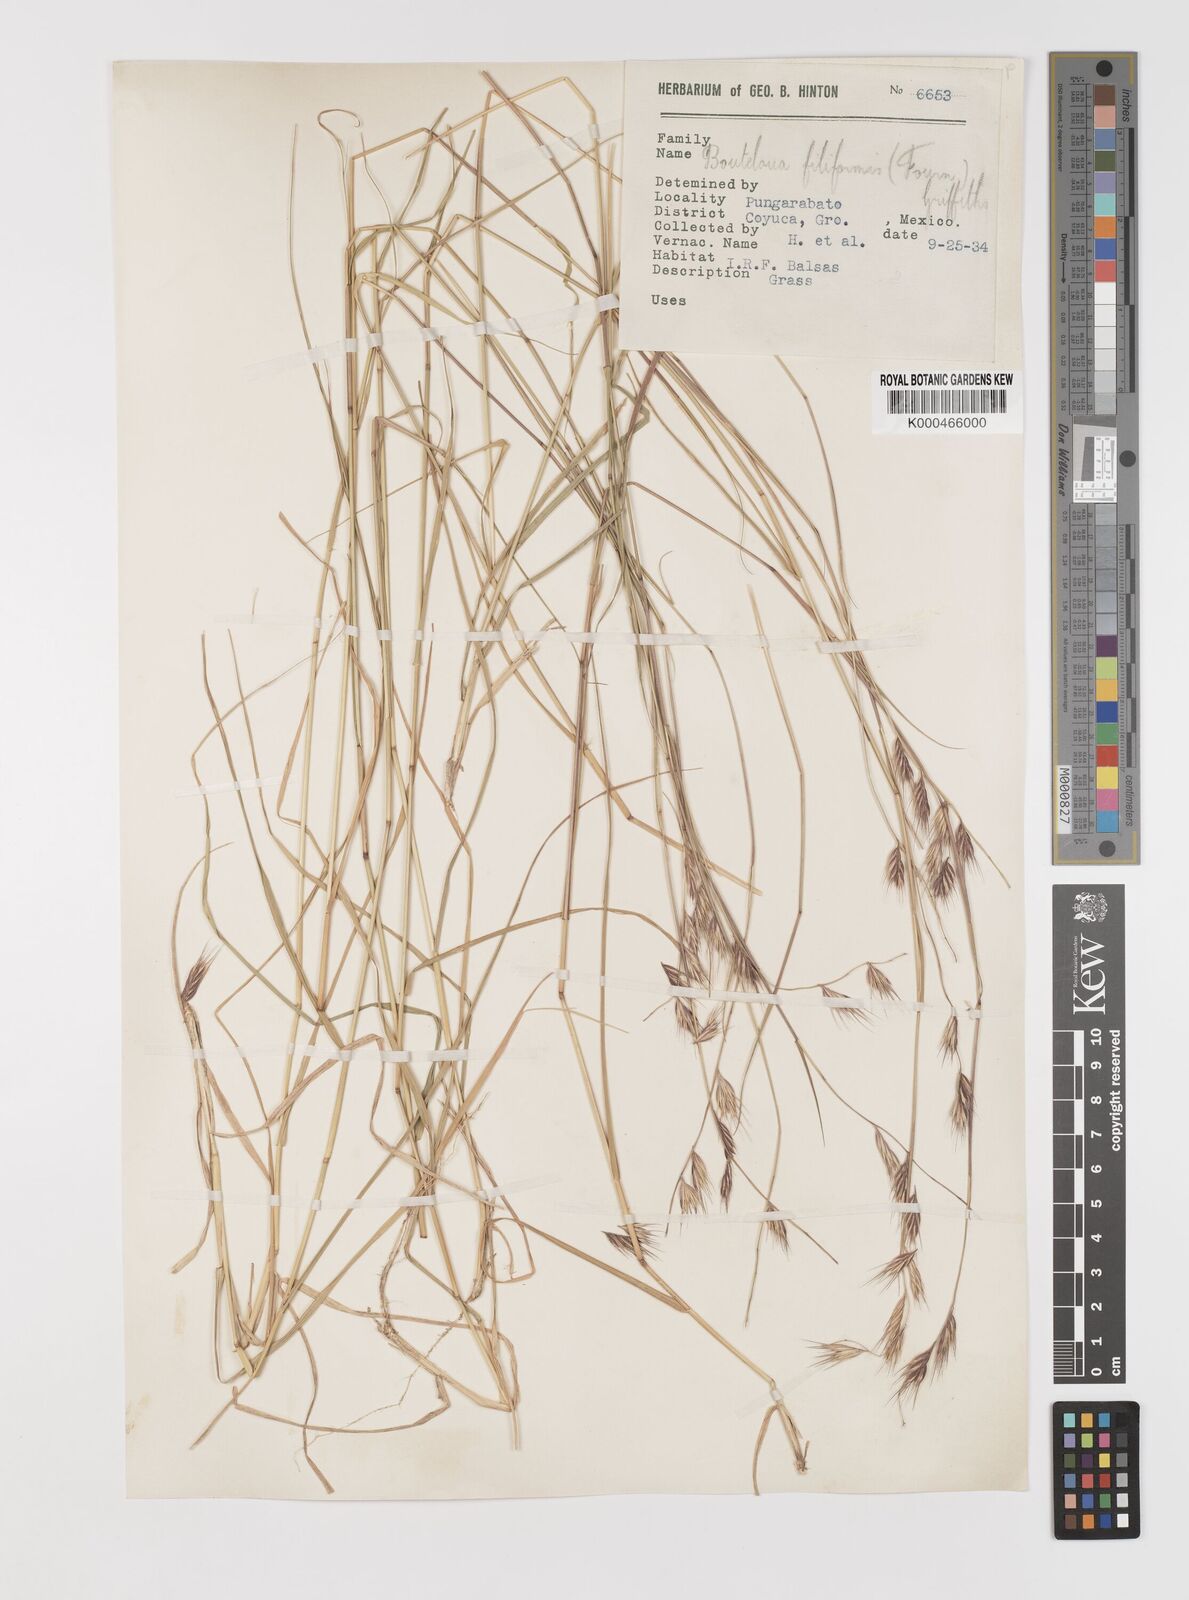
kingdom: Plantae
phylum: Tracheophyta
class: Liliopsida
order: Poales
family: Poaceae
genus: Bouteloua
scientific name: Bouteloua repens
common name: Slender grama
